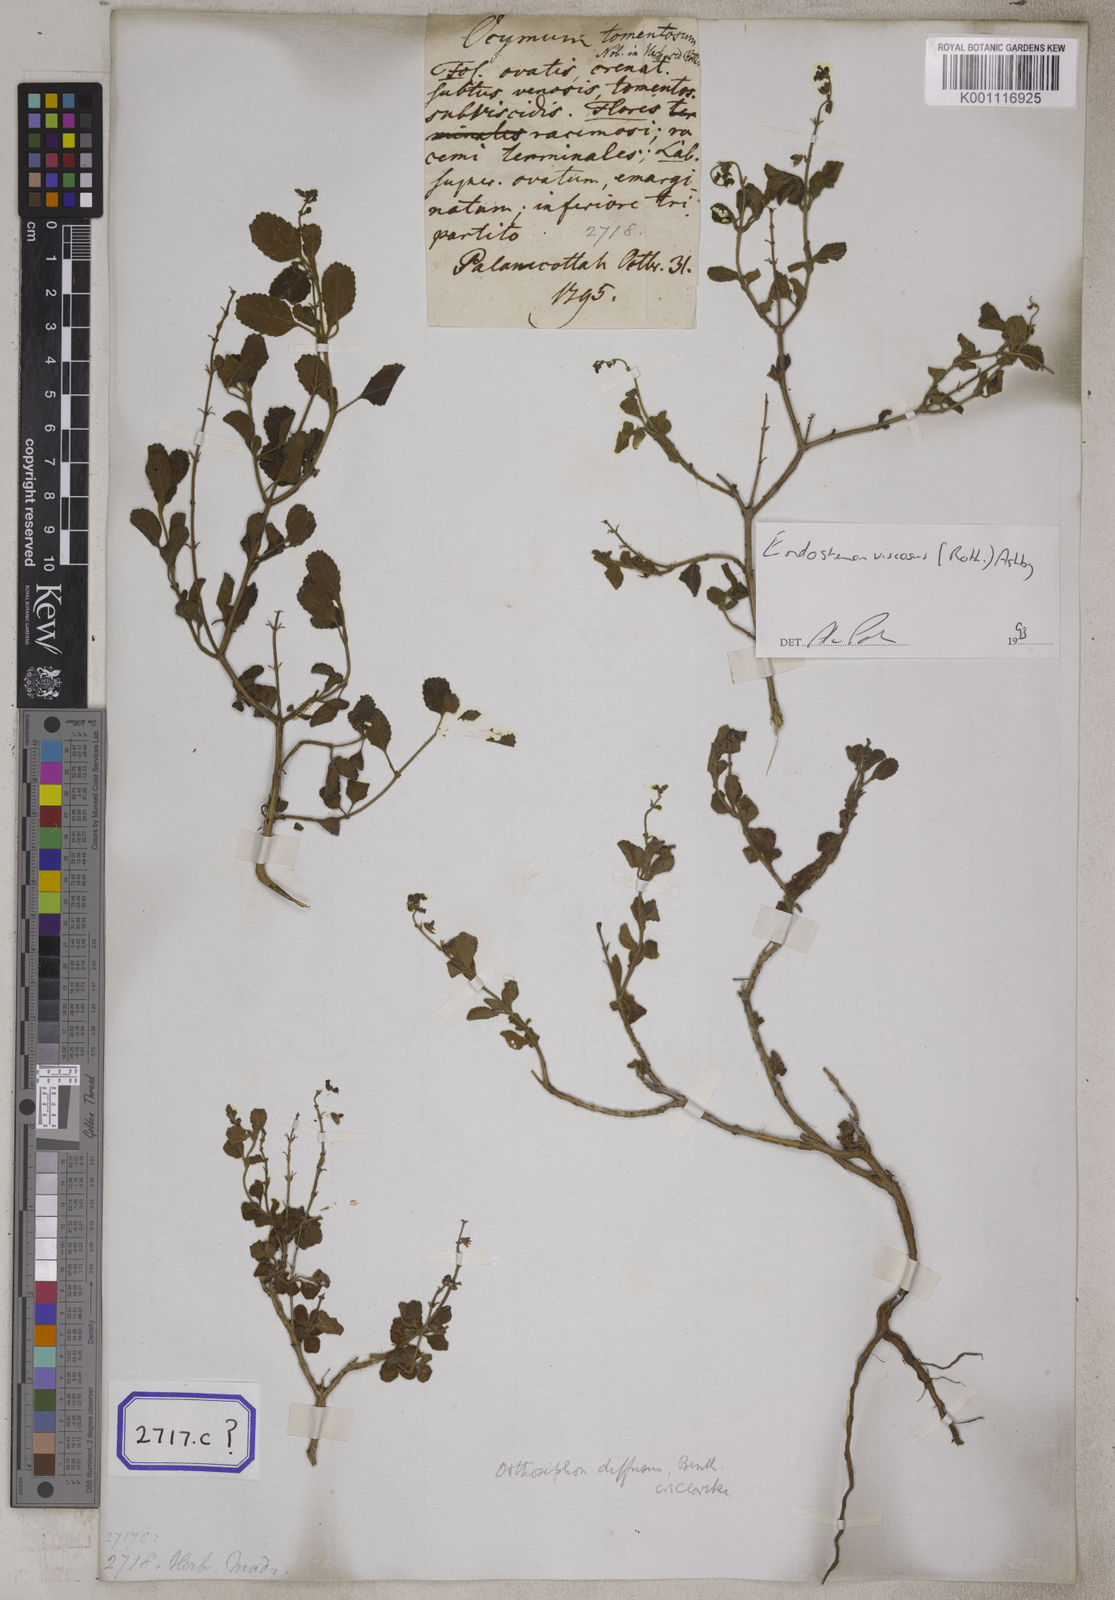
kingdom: Plantae
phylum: Tracheophyta
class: Magnoliopsida
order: Lamiales
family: Lamiaceae
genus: Ocimum
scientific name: Ocimum
